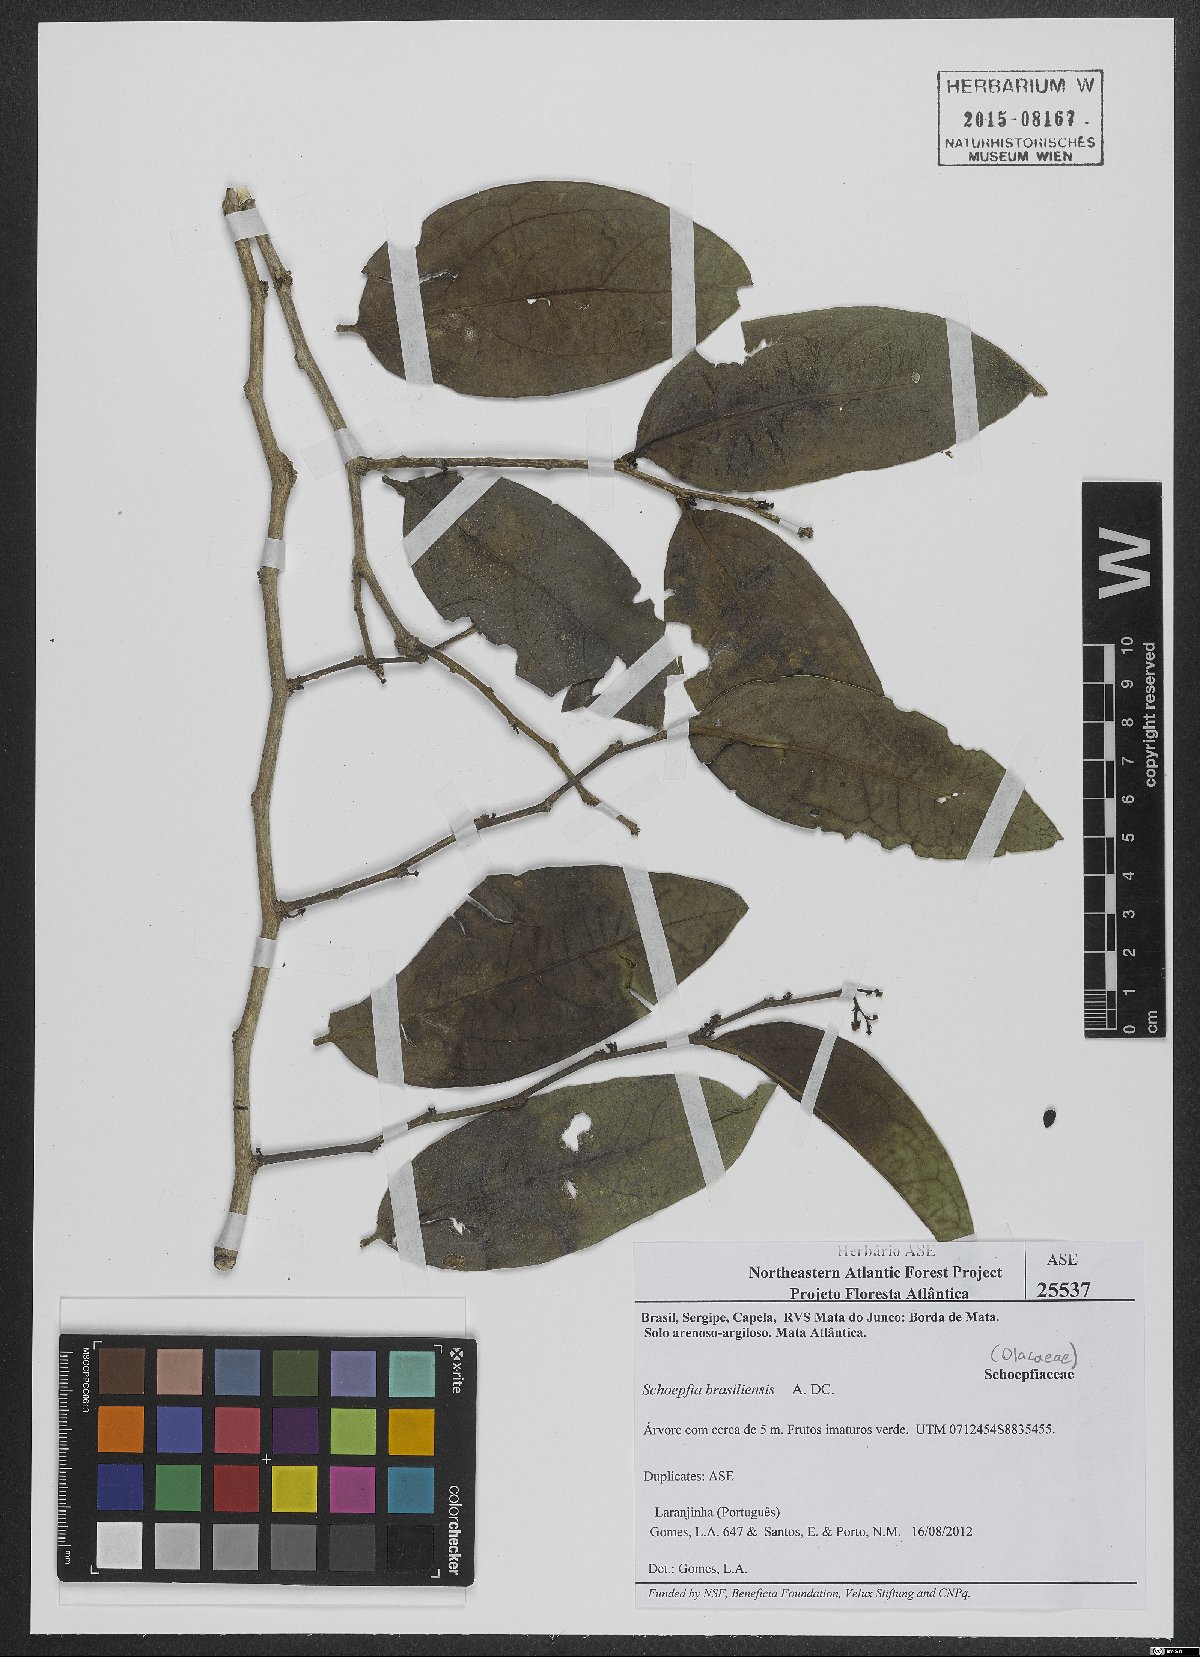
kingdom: Plantae
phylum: Tracheophyta
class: Magnoliopsida
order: Santalales
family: Schoepfiaceae
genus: Schoepfia
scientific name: Schoepfia brasiliensis
